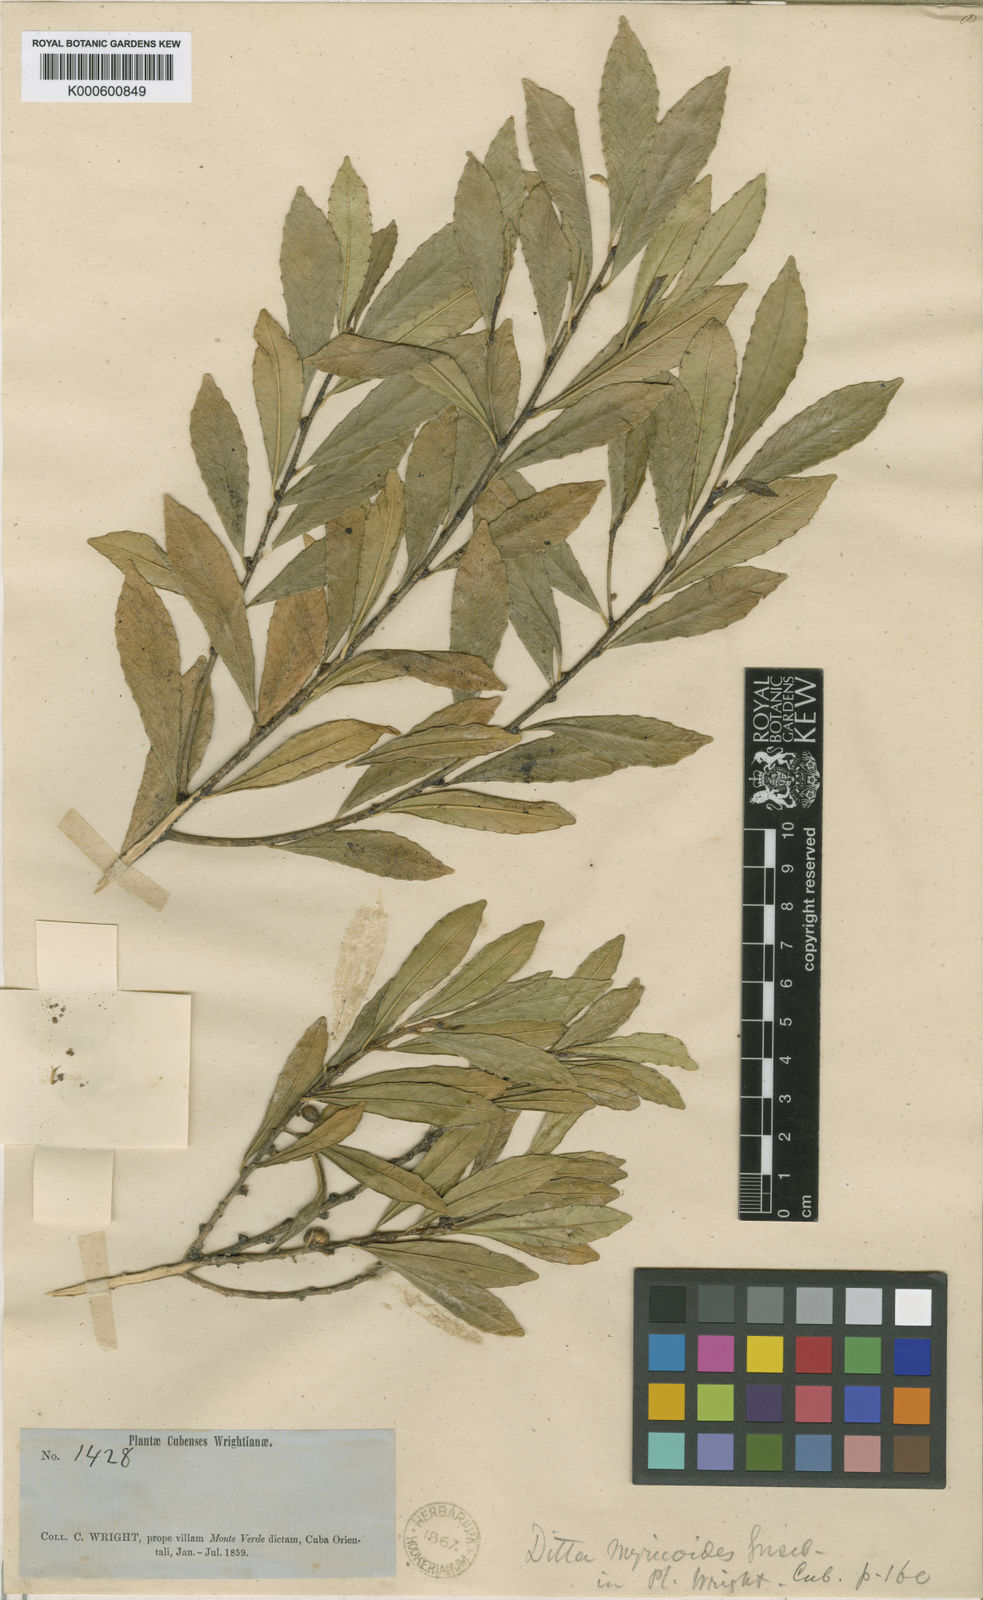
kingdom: Plantae
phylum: Tracheophyta
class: Magnoliopsida
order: Malpighiales
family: Euphorbiaceae
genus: Ditta
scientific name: Ditta myricoides
